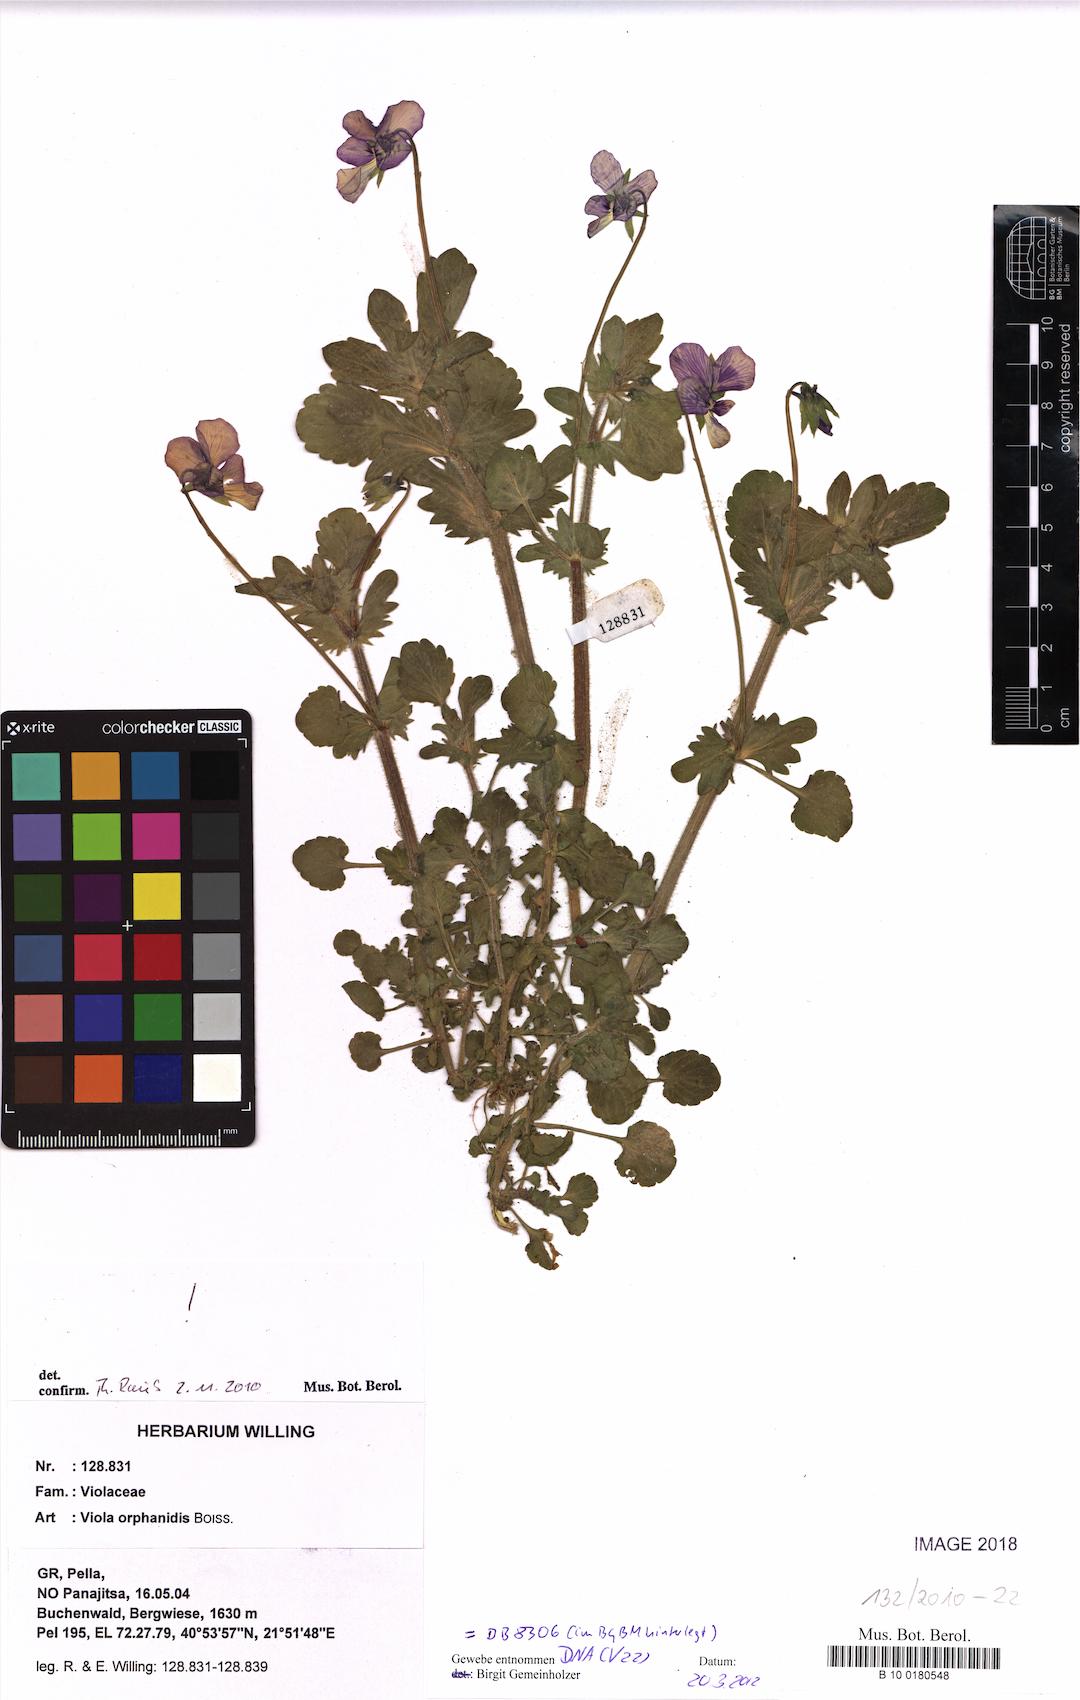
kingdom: Plantae
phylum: Tracheophyta
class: Magnoliopsida
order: Malpighiales
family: Violaceae
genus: Viola
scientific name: Viola orphanidis
